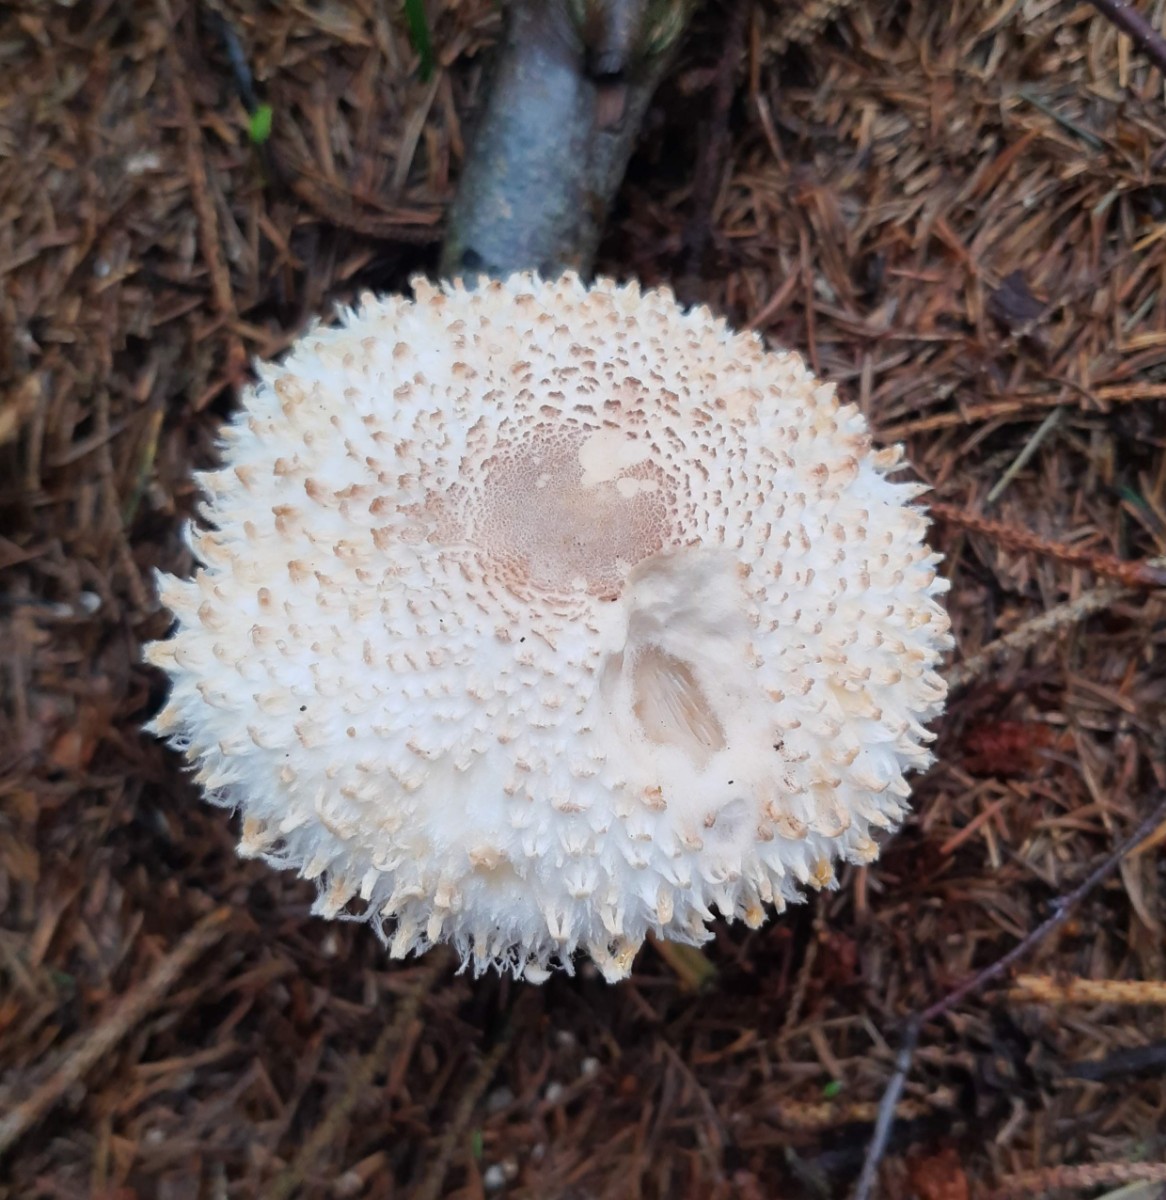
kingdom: Fungi
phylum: Basidiomycota
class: Agaricomycetes
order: Agaricales
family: Agaricaceae
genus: Leucoagaricus
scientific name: Leucoagaricus nympharum
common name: gran-silkehat
